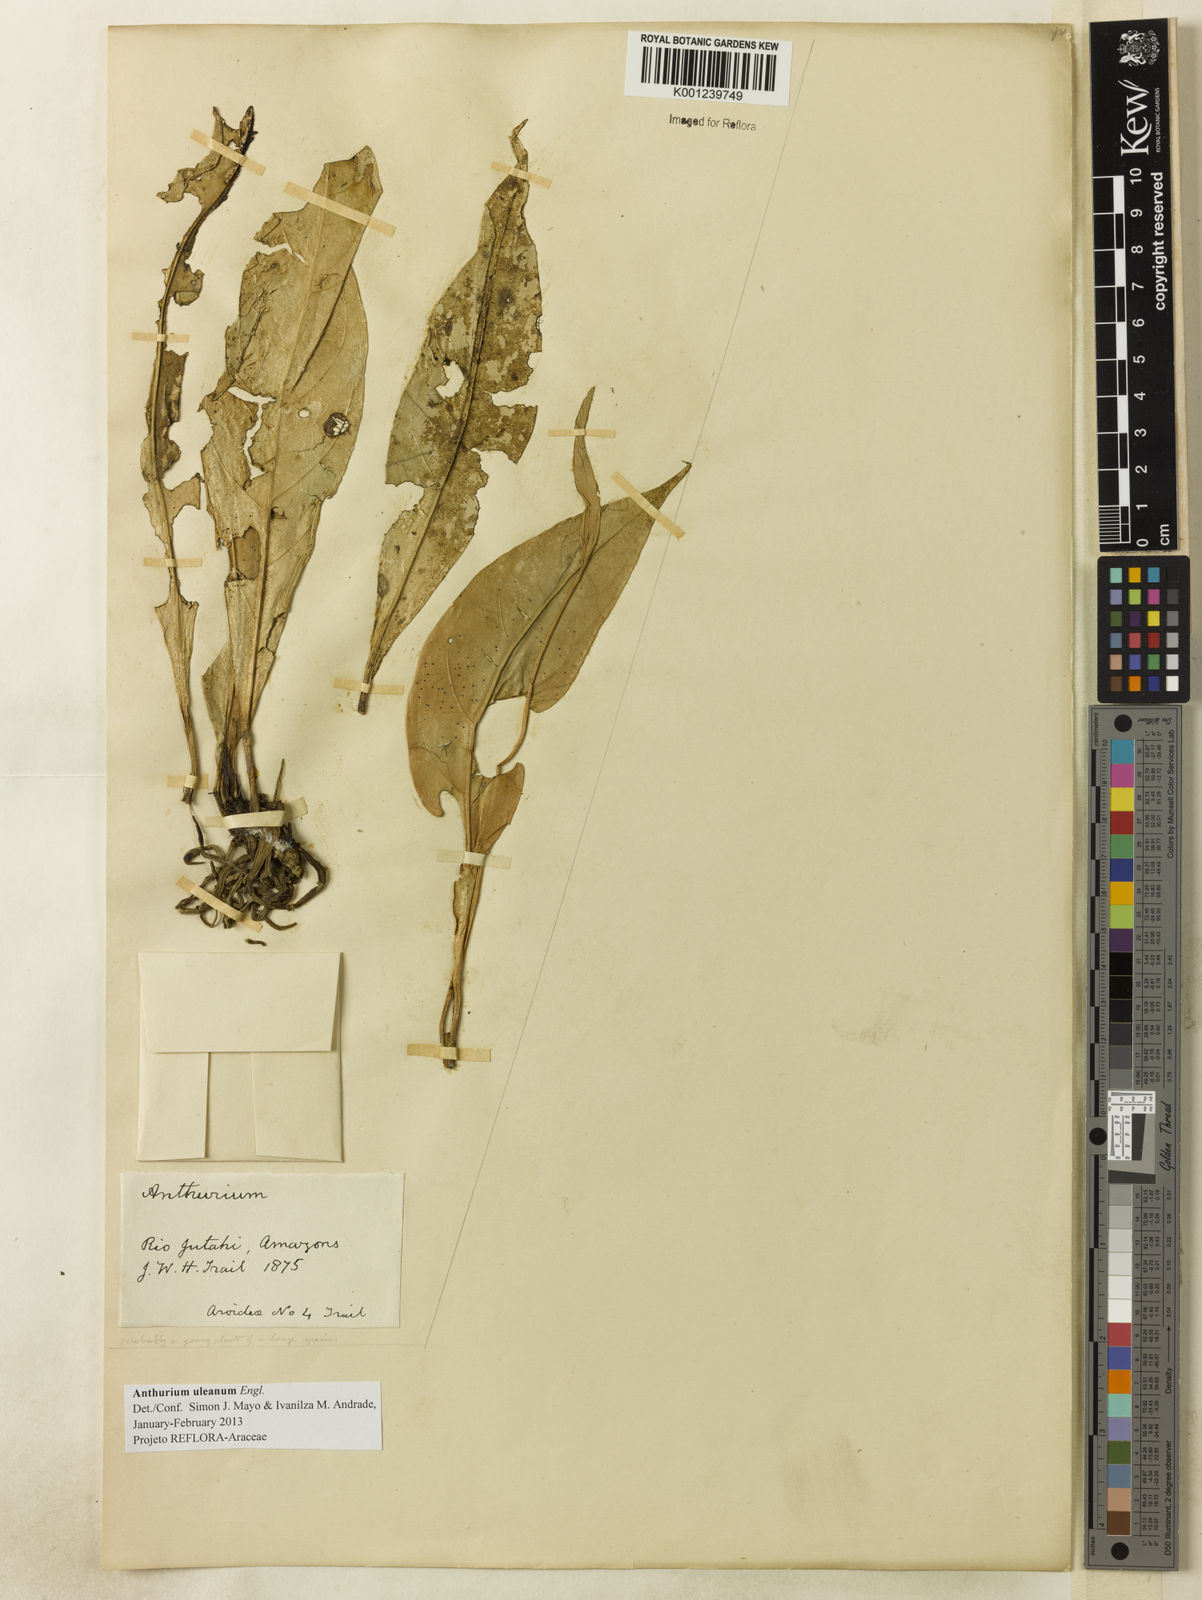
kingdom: Plantae
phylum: Tracheophyta
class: Liliopsida
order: Alismatales
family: Araceae
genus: Anthurium
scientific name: Anthurium uleanum
